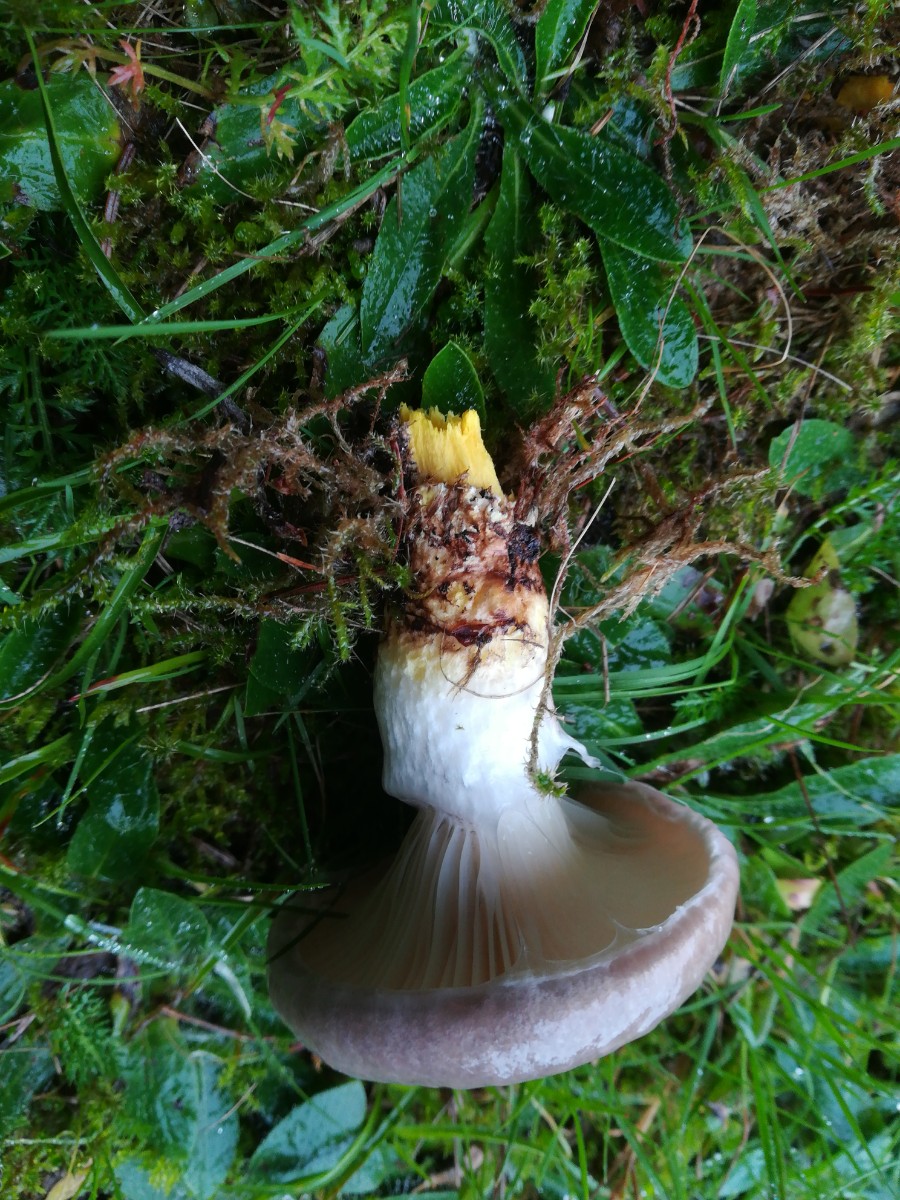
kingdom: Fungi
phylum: Basidiomycota
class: Agaricomycetes
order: Boletales
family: Gomphidiaceae
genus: Gomphidius
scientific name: Gomphidius glutinosus
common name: grå slimslør
